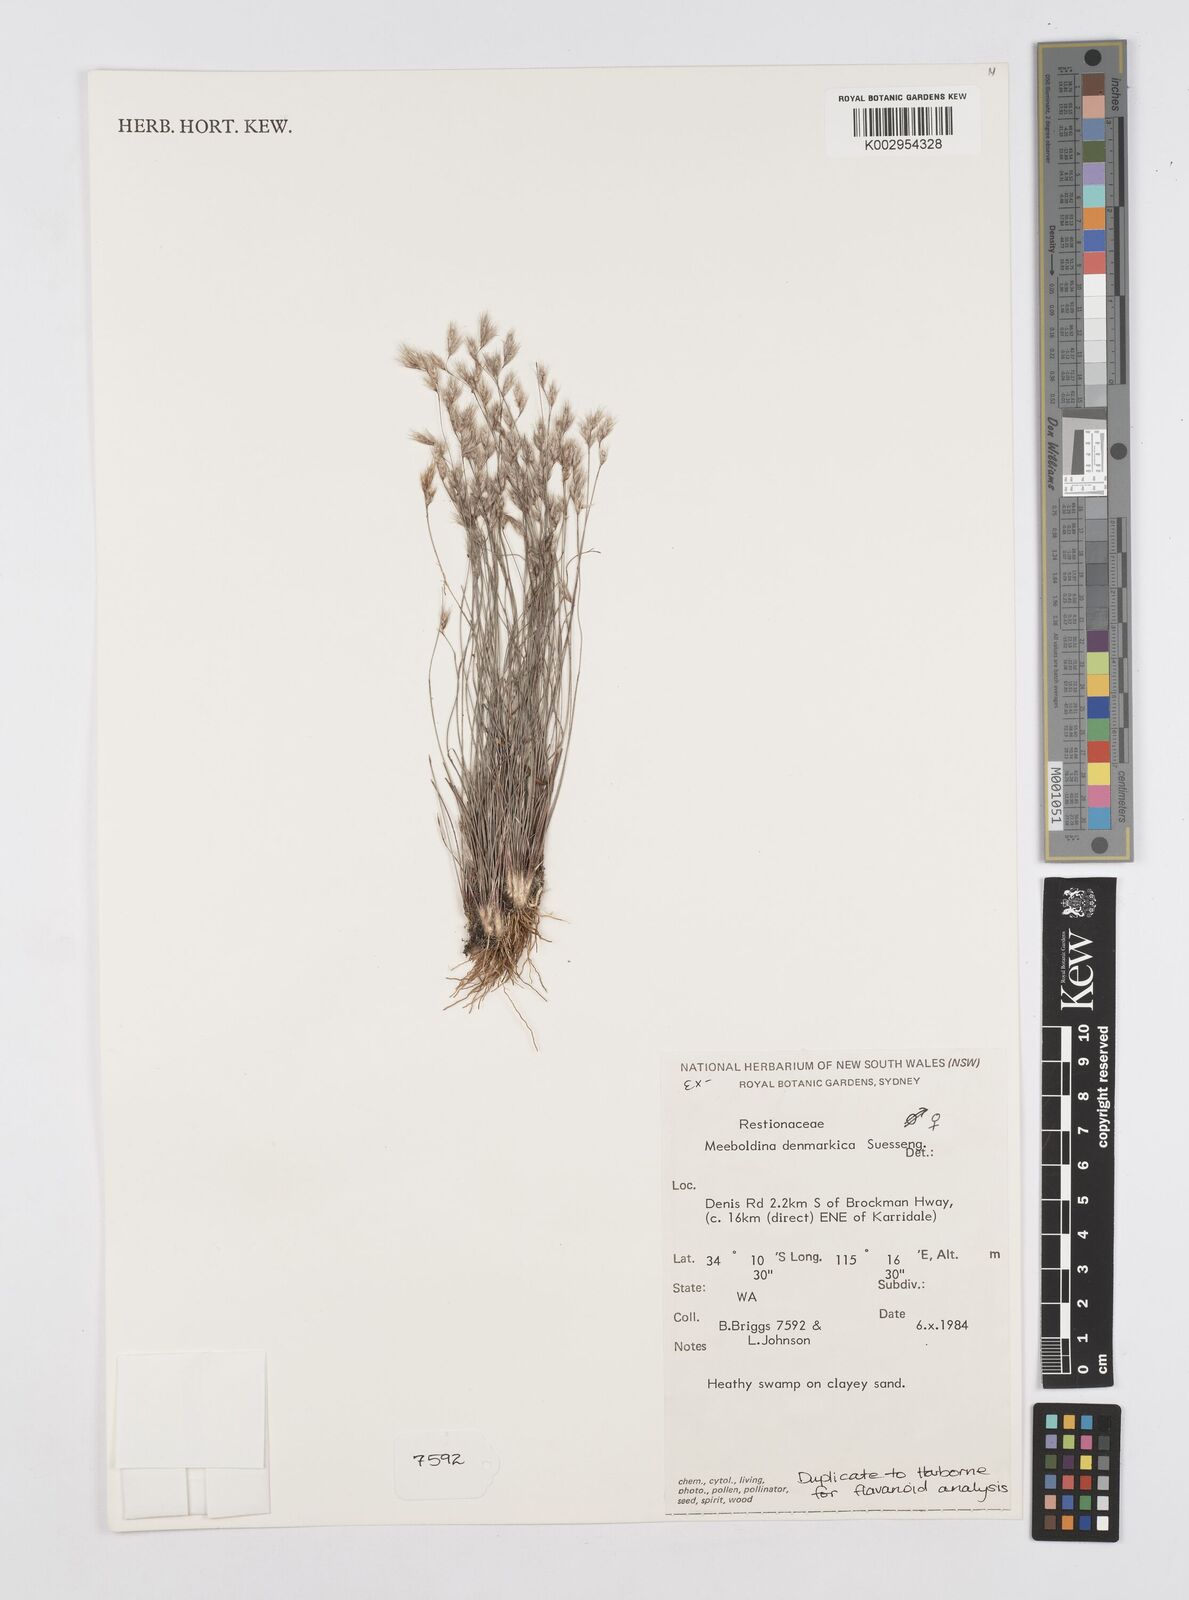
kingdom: Plantae
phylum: Tracheophyta
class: Liliopsida
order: Poales
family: Restionaceae
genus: Leptocarpus
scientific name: Leptocarpus denmarkicus
